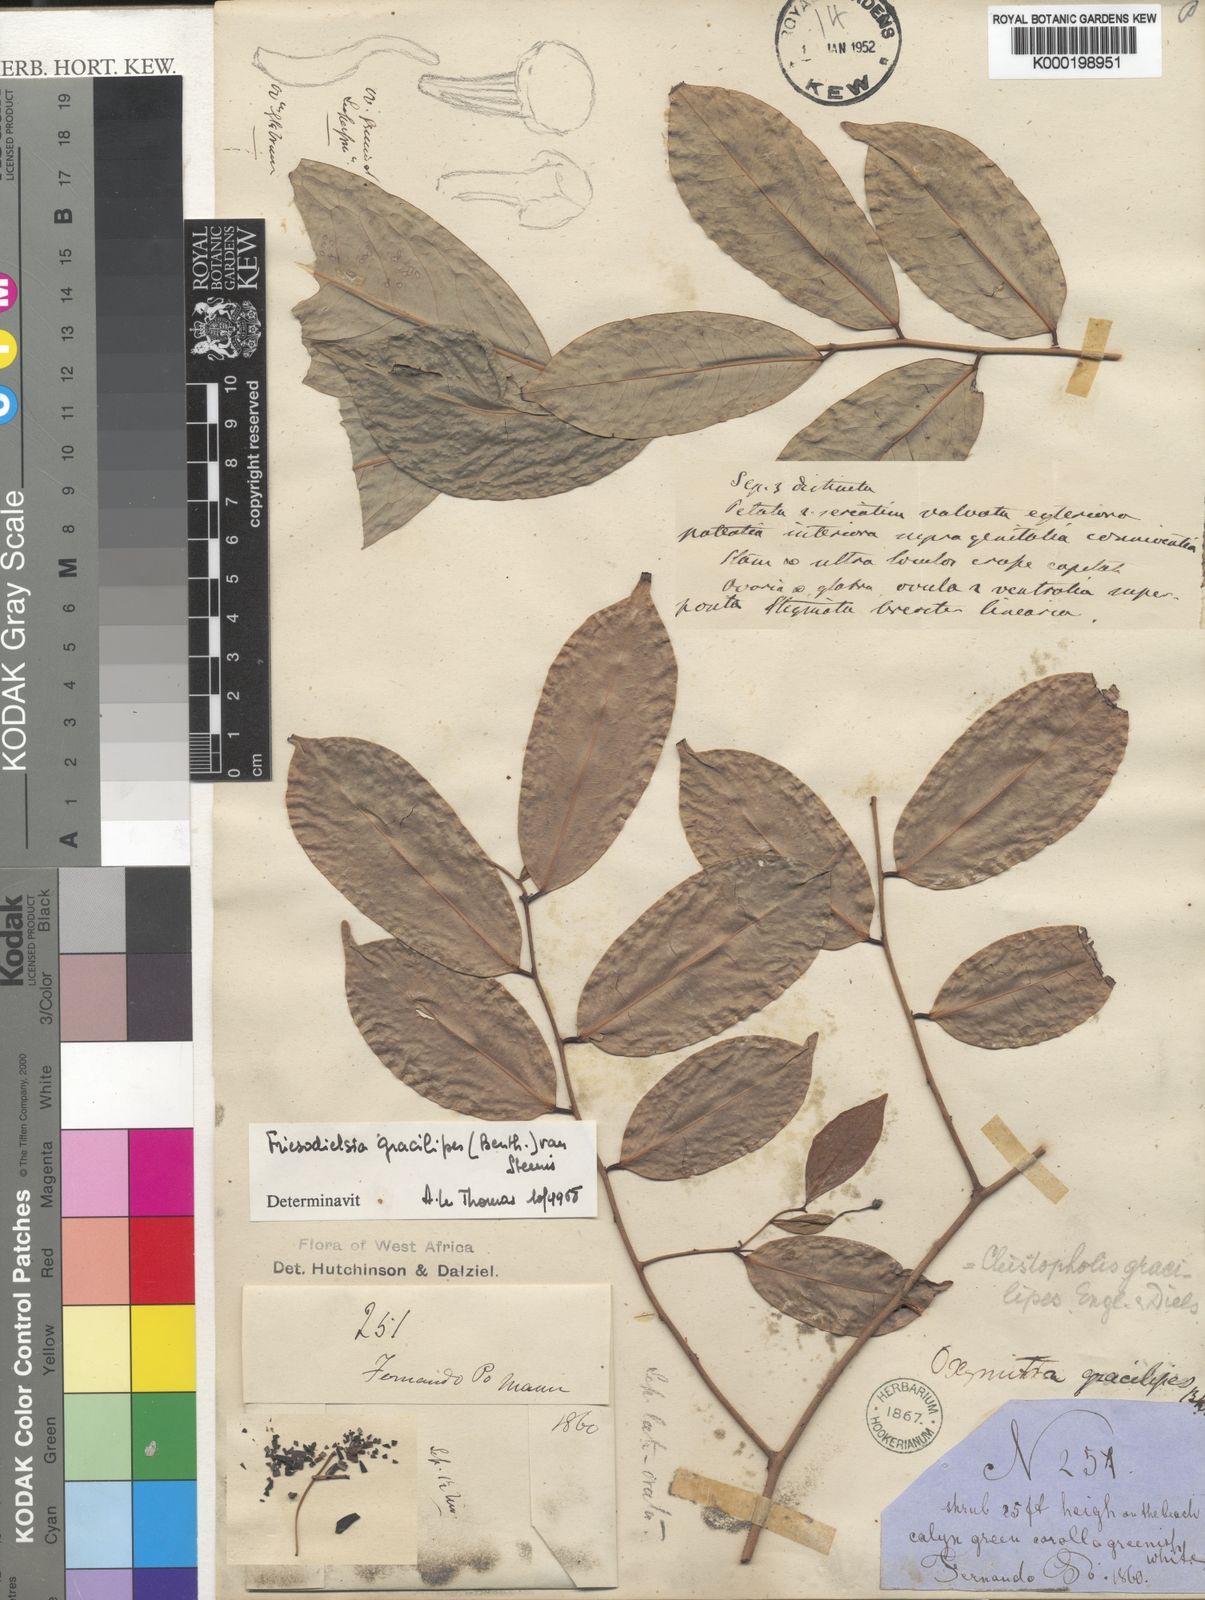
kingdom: Plantae
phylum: Tracheophyta
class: Magnoliopsida
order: Magnoliales
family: Annonaceae
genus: Friesodielsia
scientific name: Friesodielsia gracilipes
